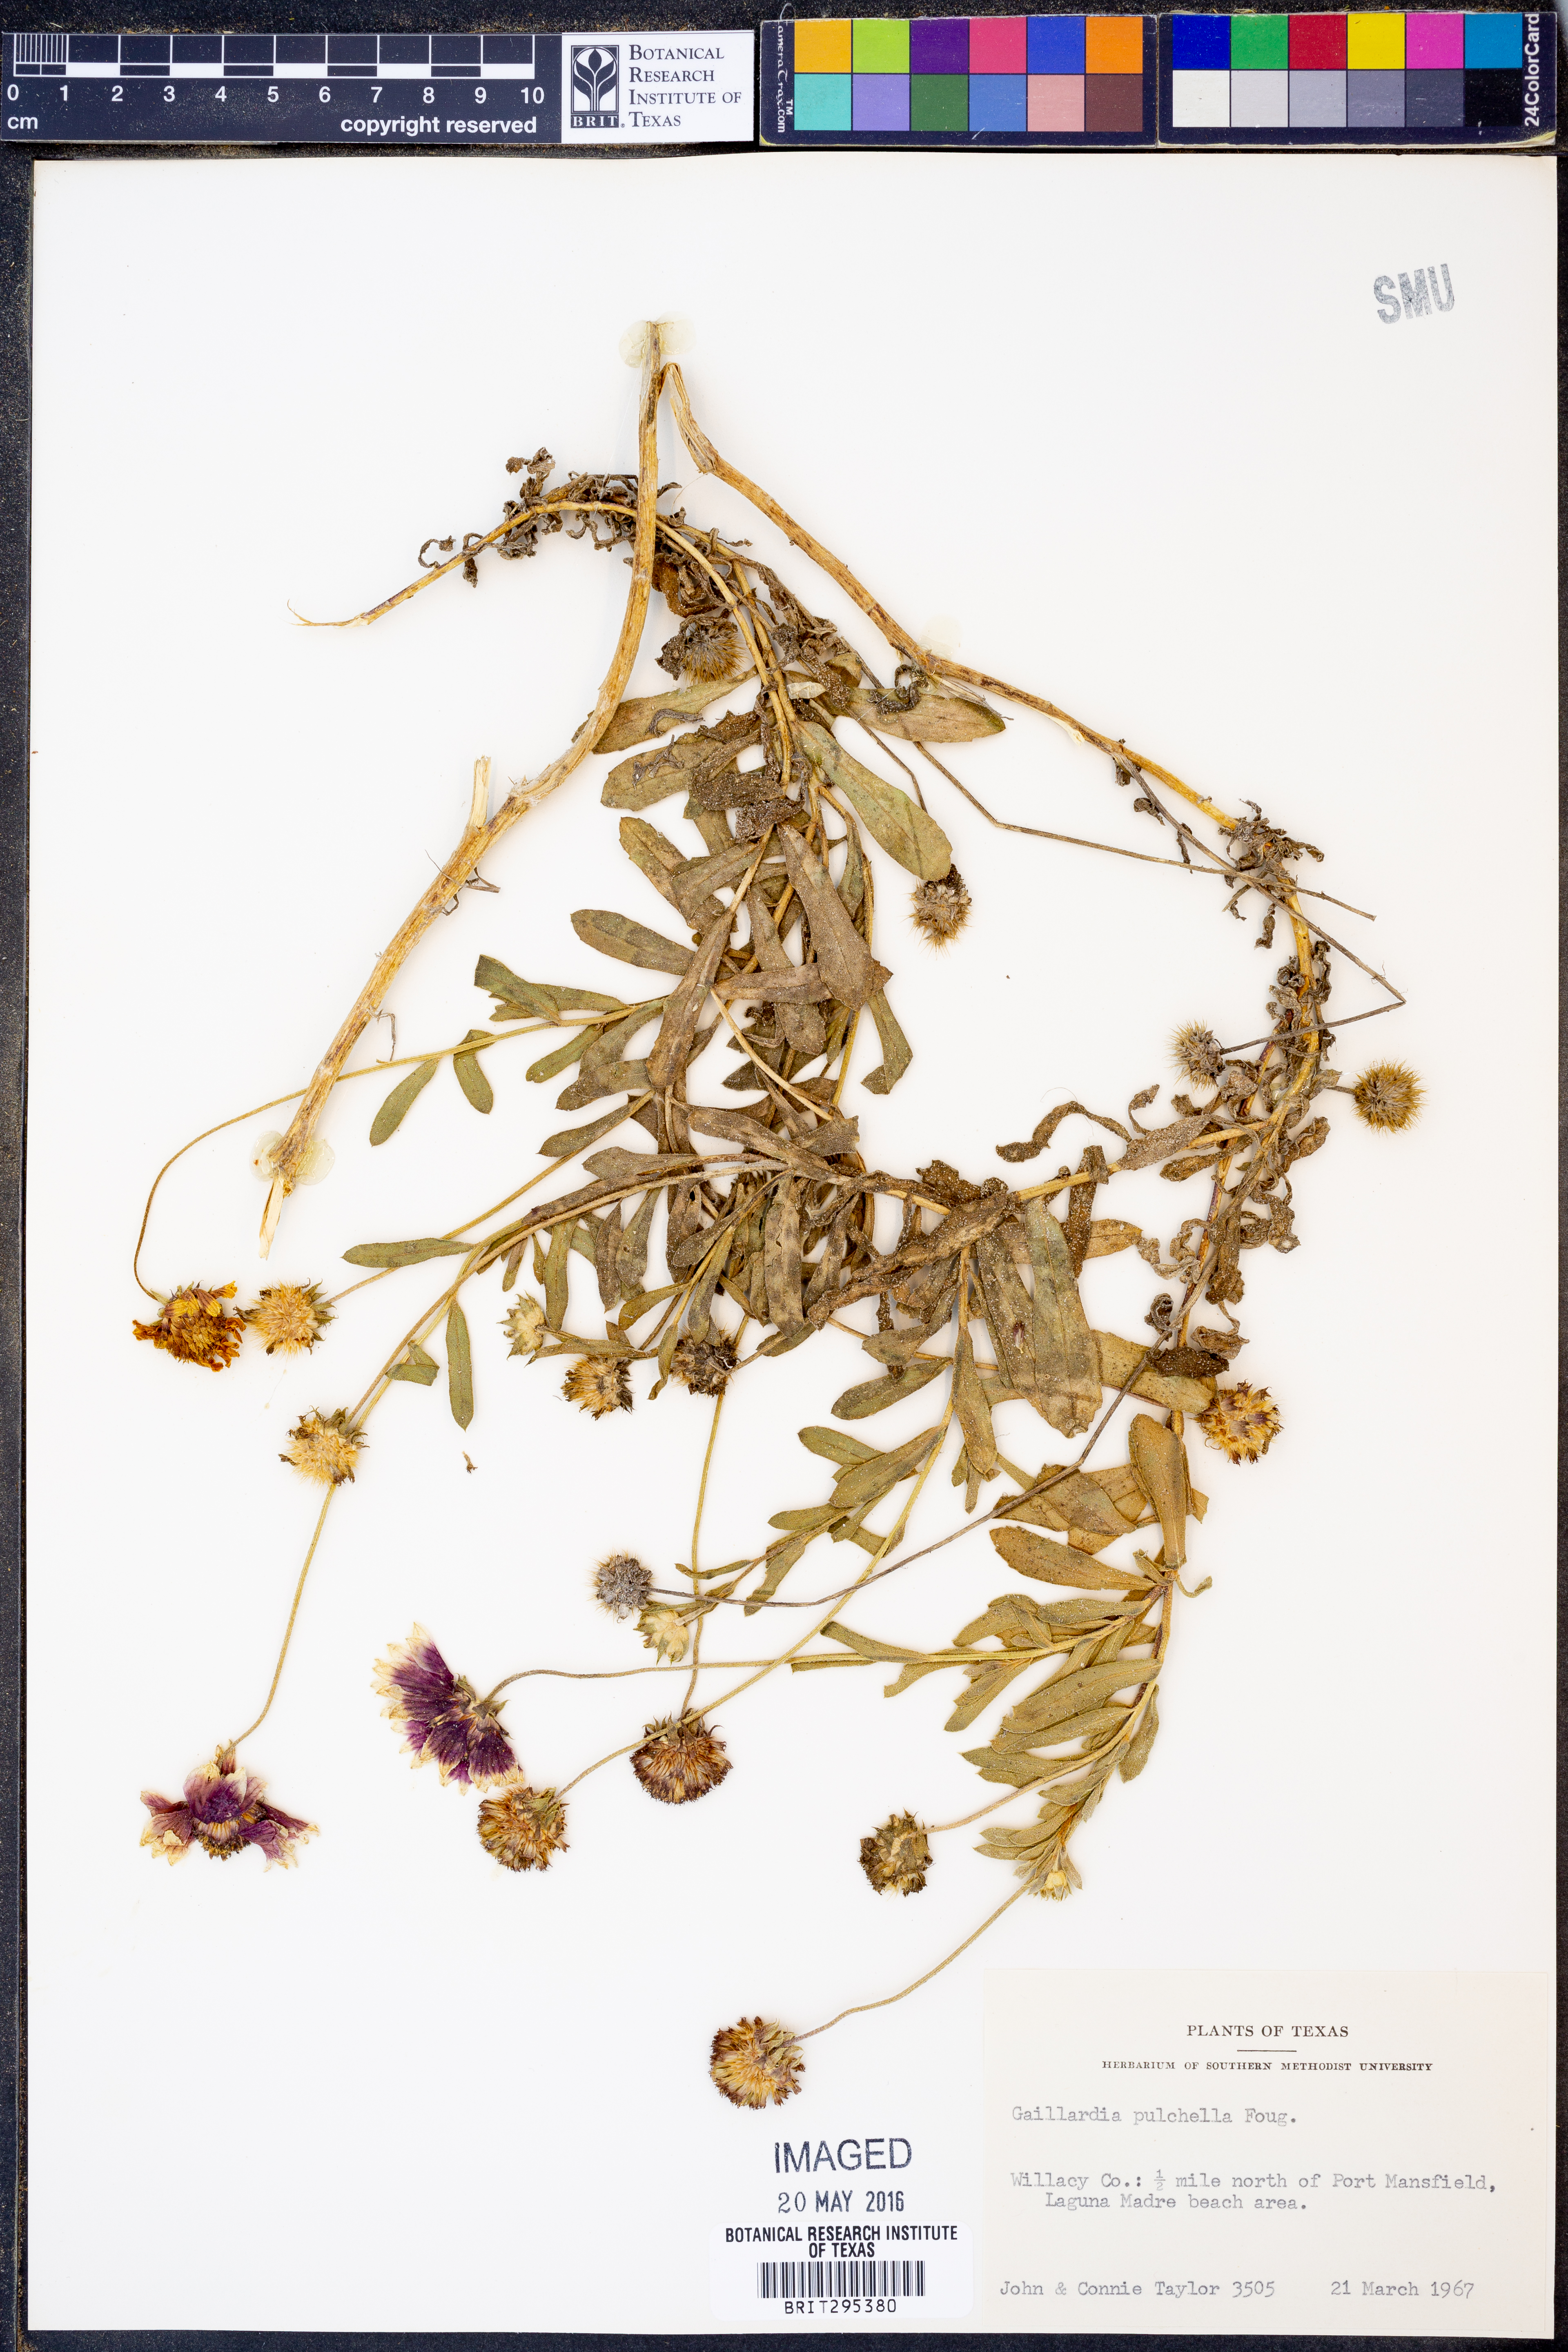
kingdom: Plantae
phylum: Tracheophyta
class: Magnoliopsida
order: Asterales
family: Asteraceae
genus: Gaillardia
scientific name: Gaillardia pulchella
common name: Firewheel
